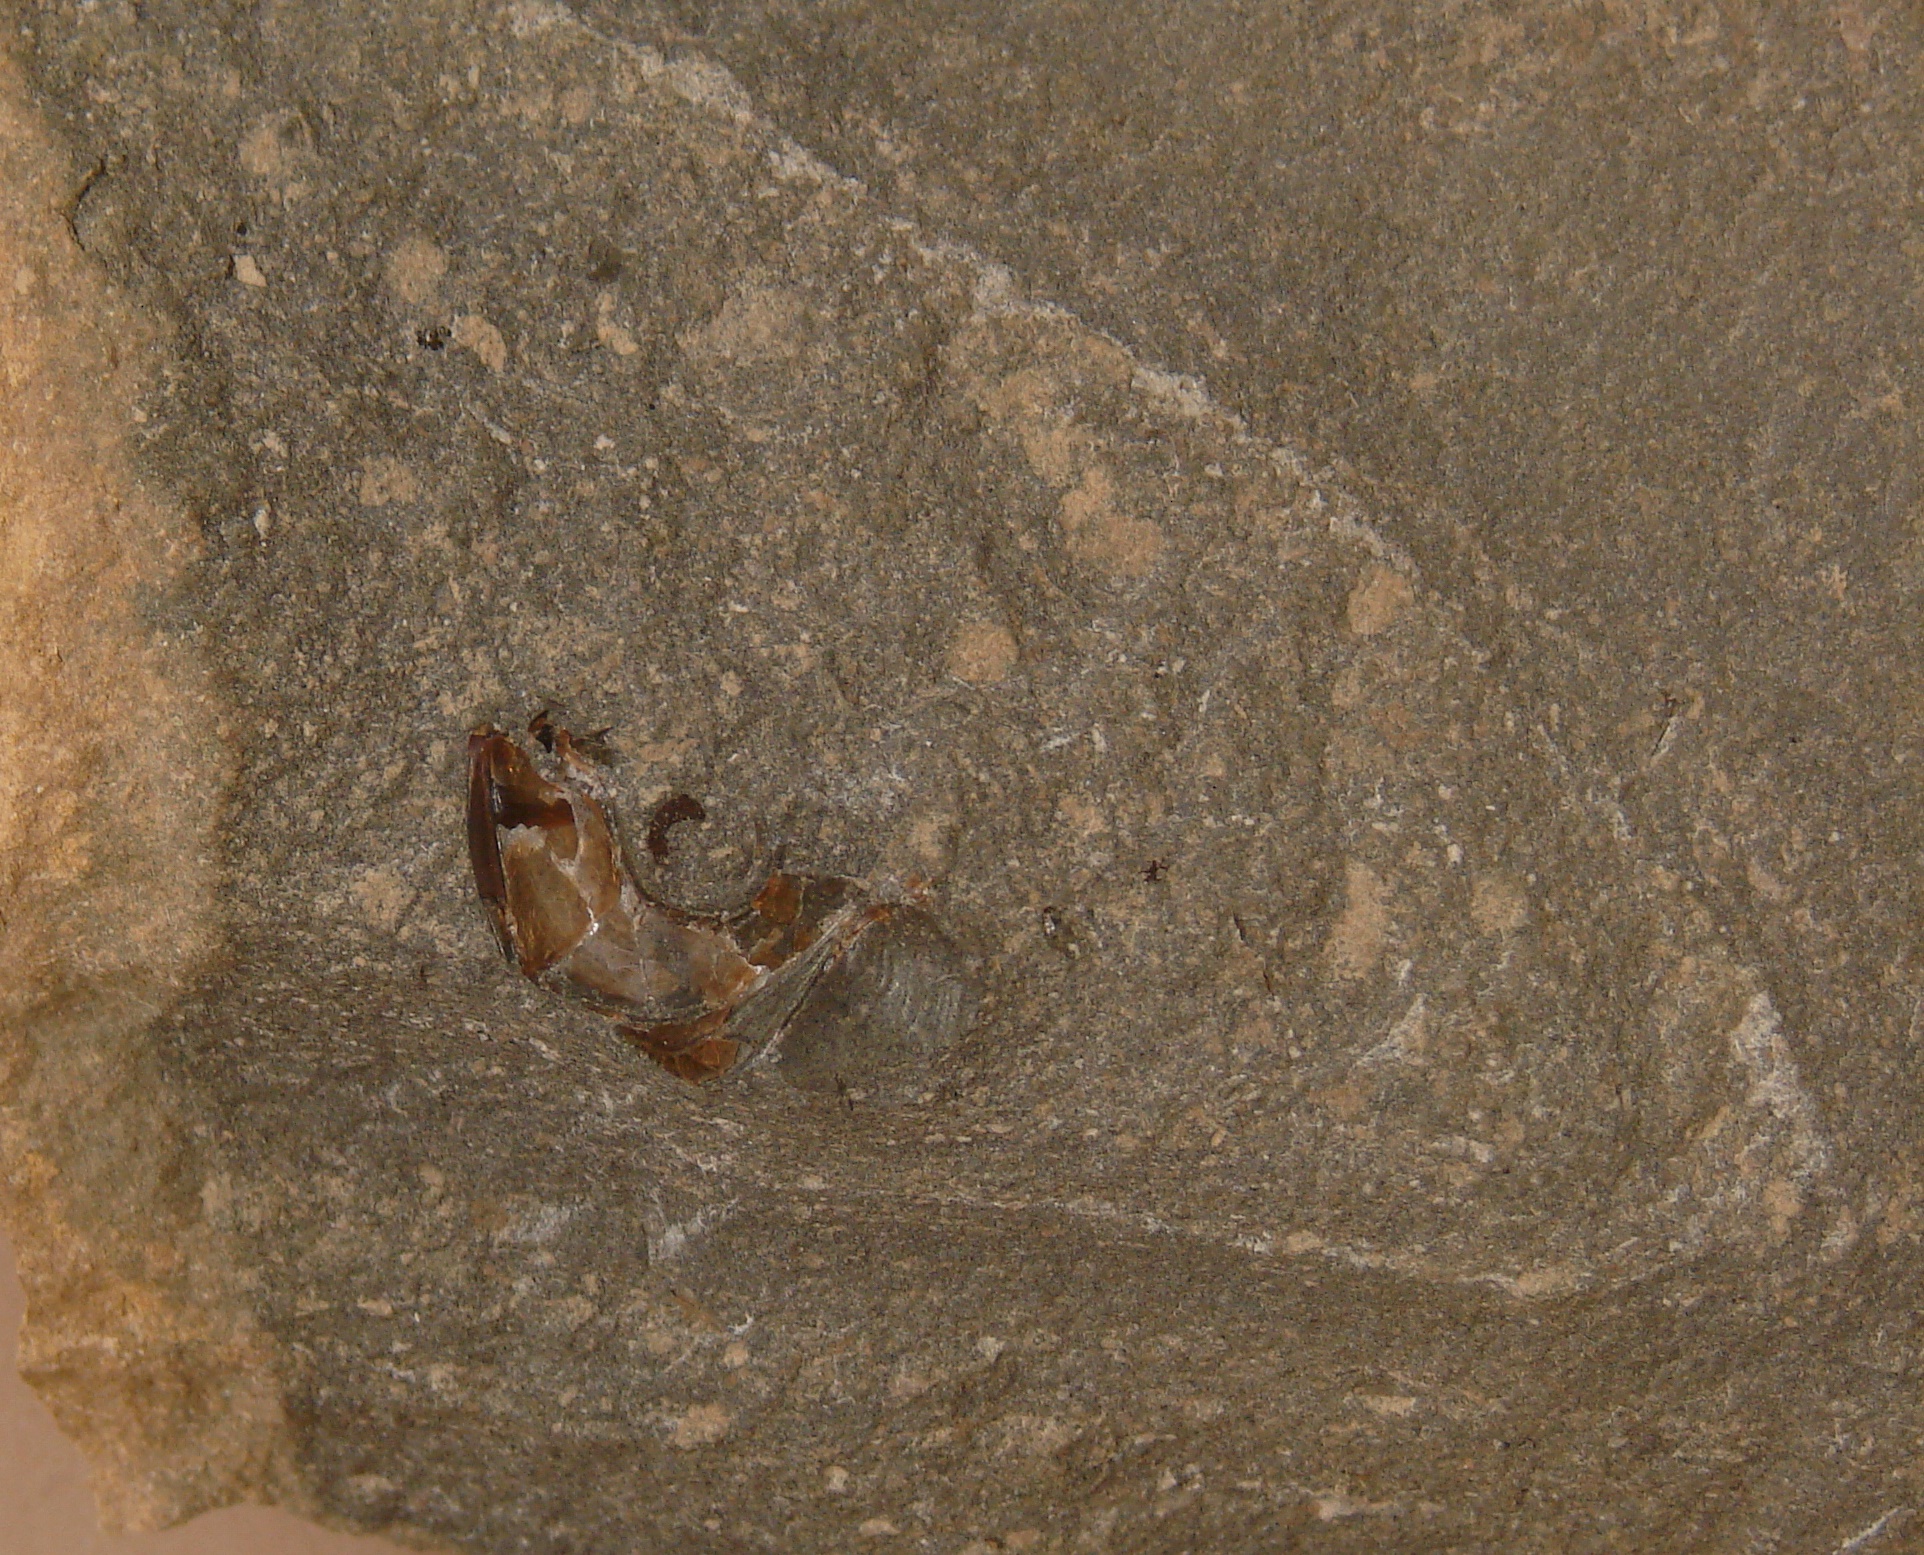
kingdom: Animalia
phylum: Chordata
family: Leptolepididae
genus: Leptolepis
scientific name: Leptolepis normandica
